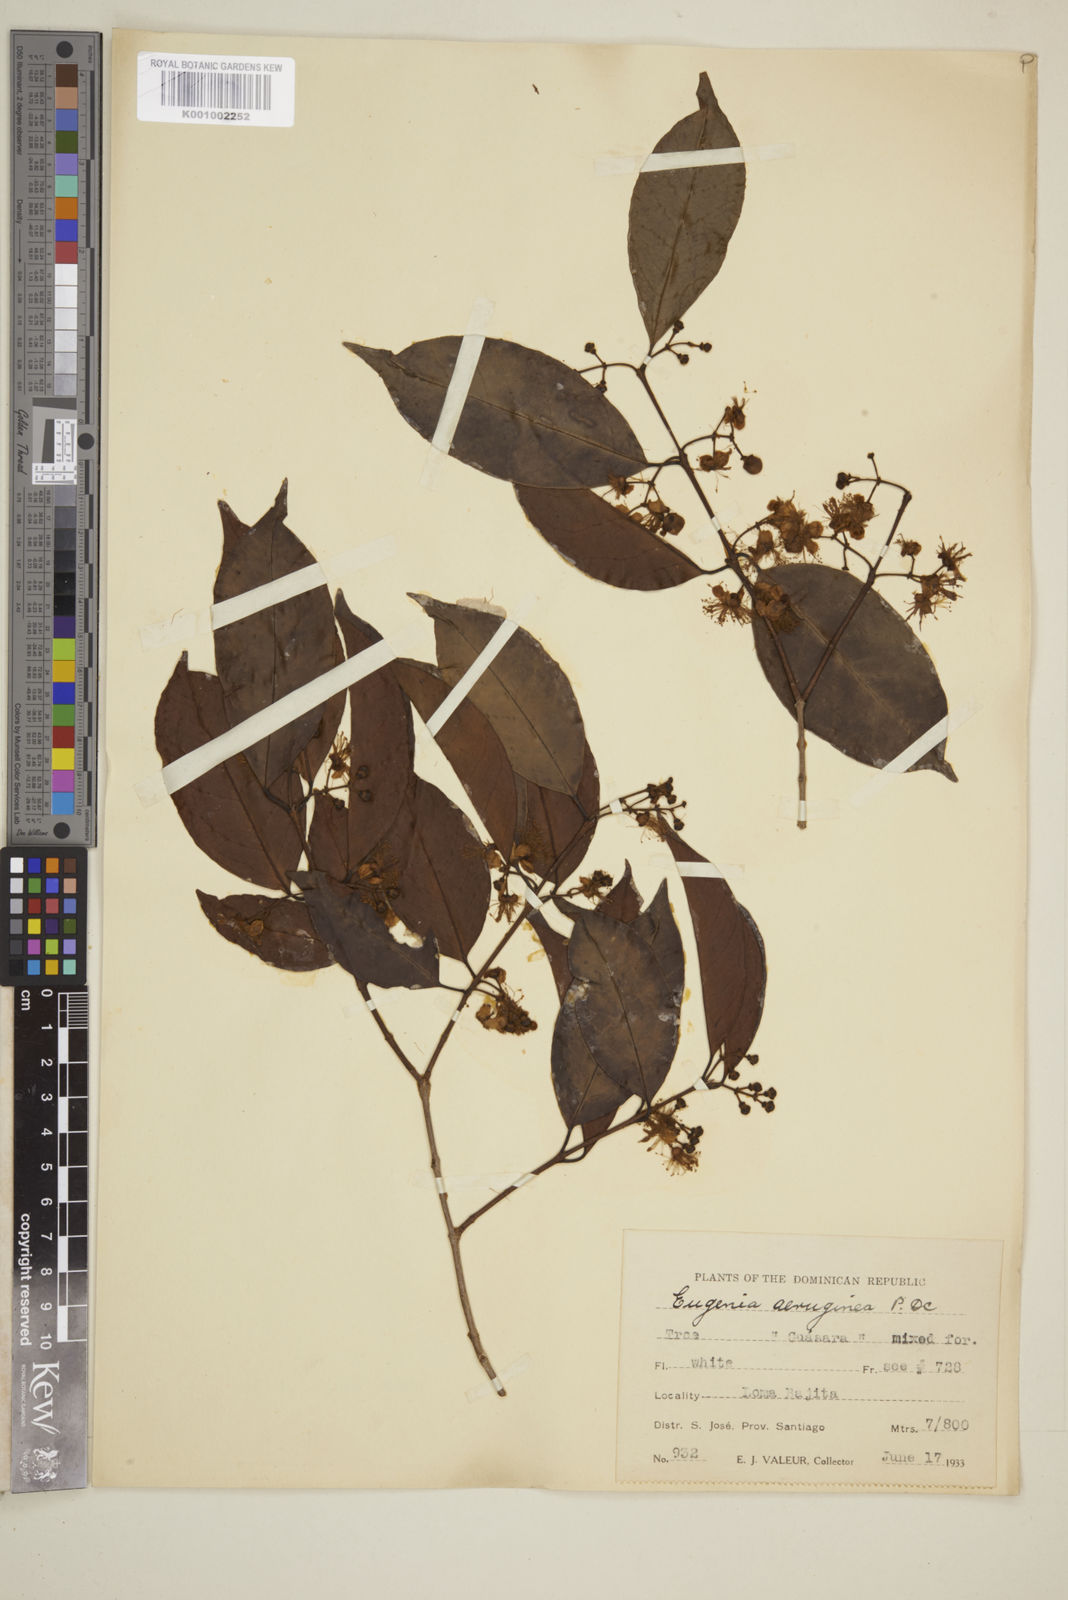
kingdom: Plantae
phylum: Tracheophyta
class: Magnoliopsida
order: Myrtales
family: Myrtaceae
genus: Eugenia
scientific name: Eugenia domingensis
